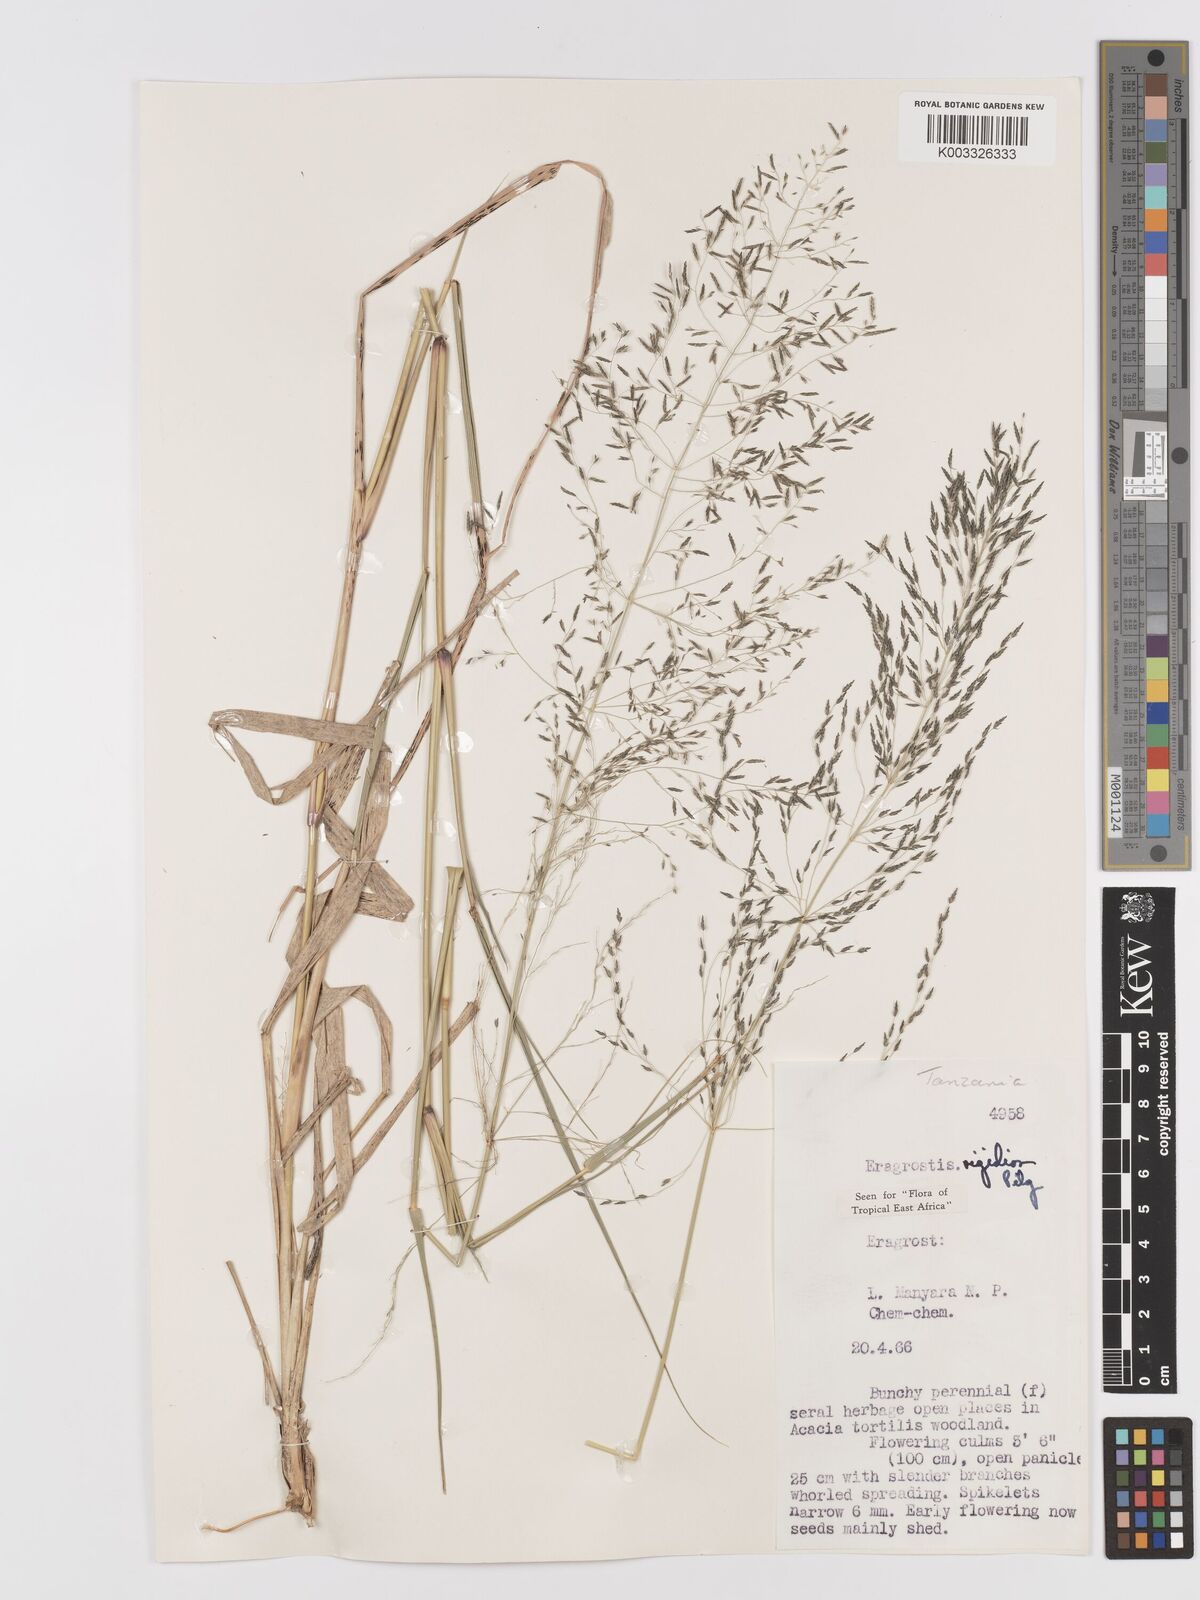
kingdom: Plantae
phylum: Tracheophyta
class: Liliopsida
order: Poales
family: Poaceae
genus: Eragrostis
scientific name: Eragrostis cylindriflora
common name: Cylinderflower lovegrass
